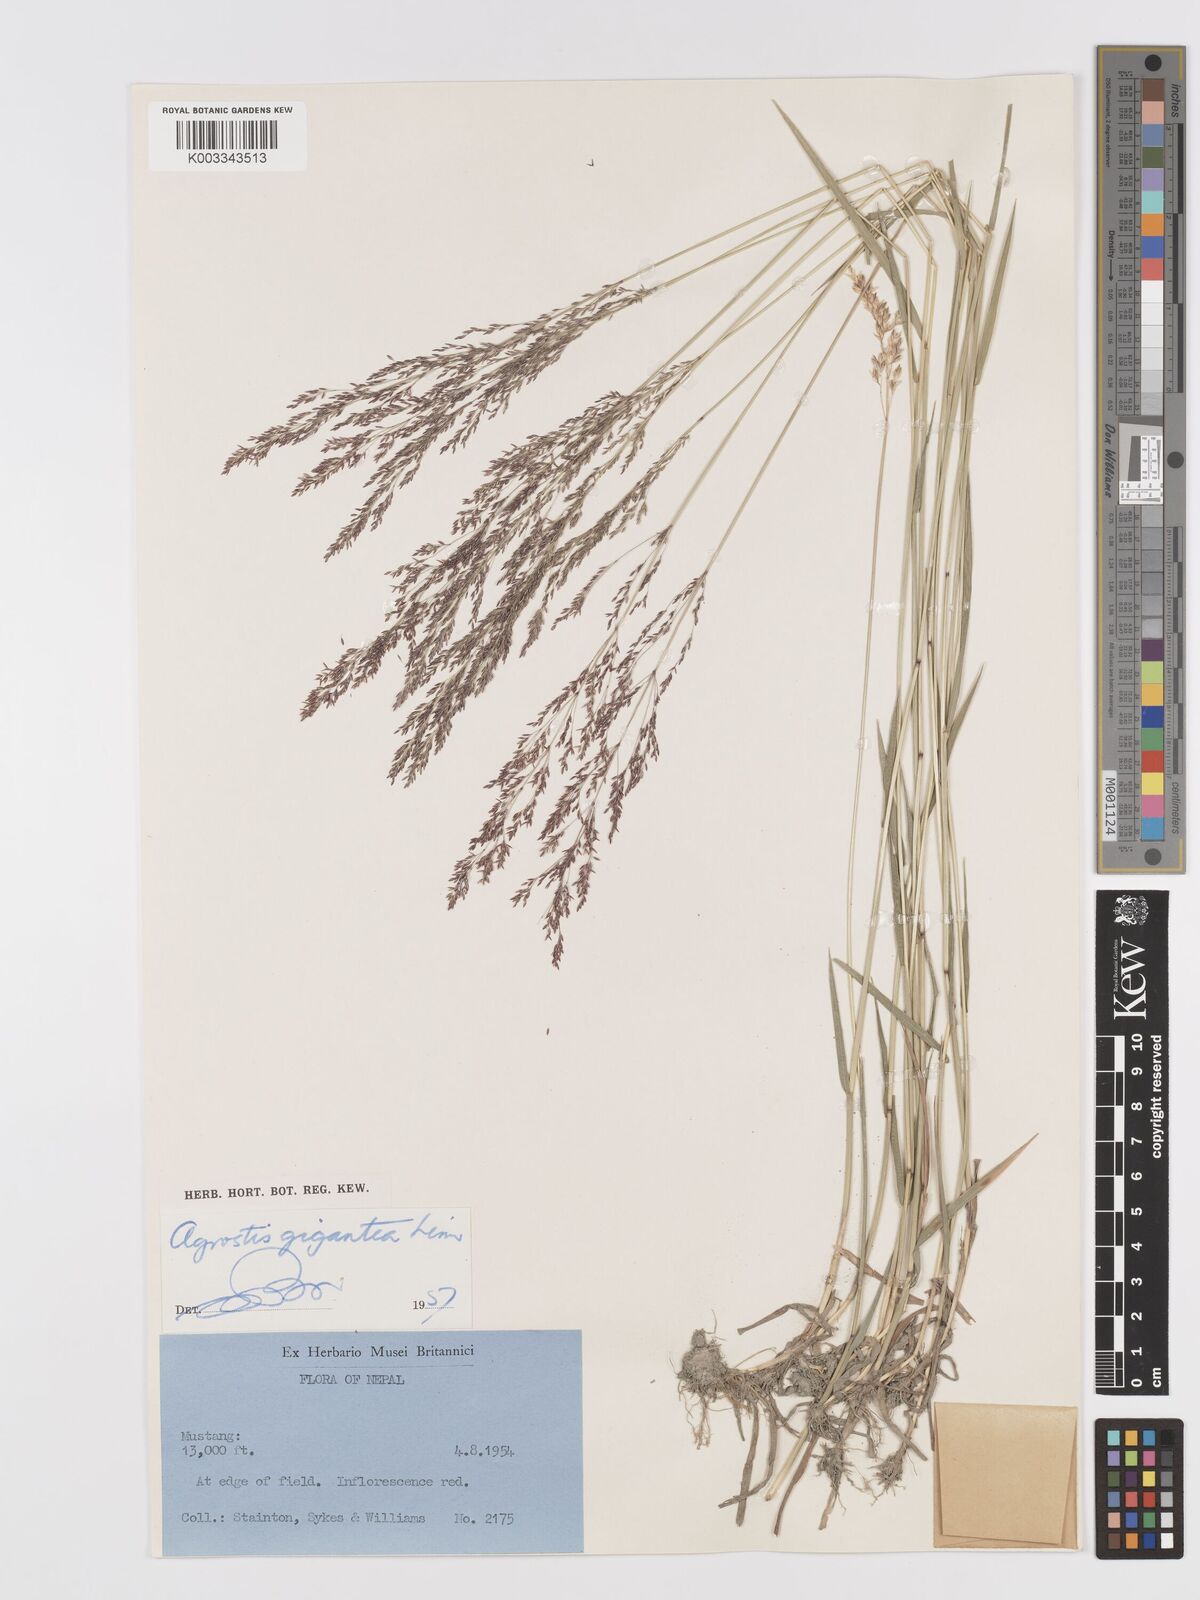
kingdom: Plantae
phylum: Tracheophyta
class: Liliopsida
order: Poales
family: Poaceae
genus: Agrostis
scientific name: Agrostis gigantea
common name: Black bent
